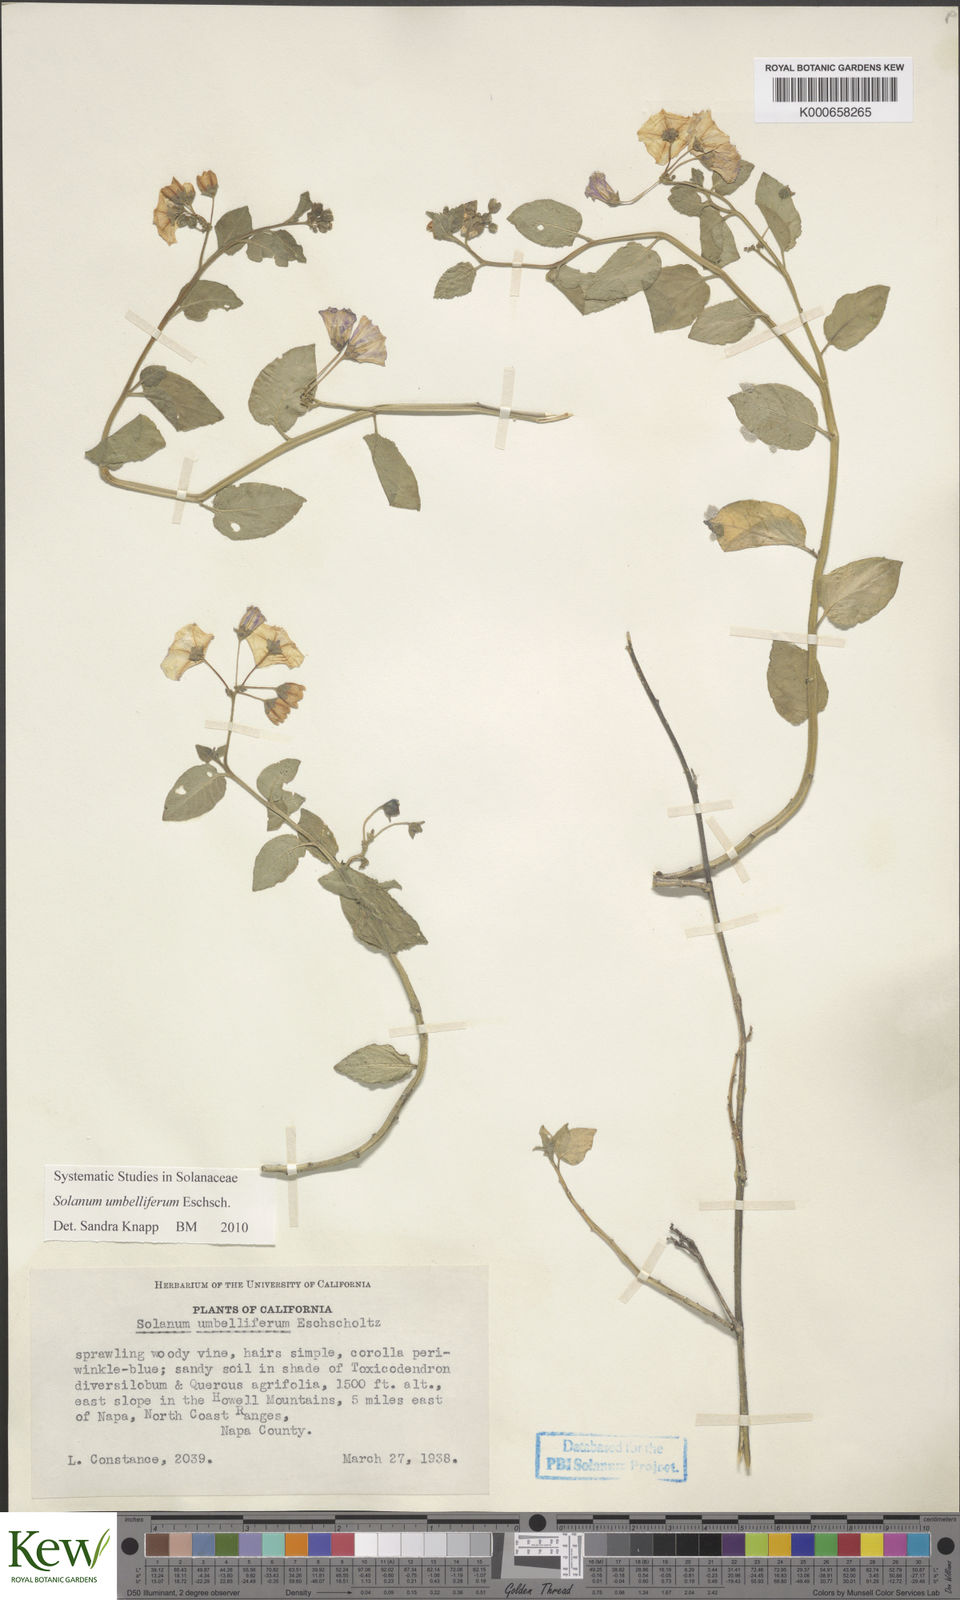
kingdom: Plantae
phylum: Tracheophyta
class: Magnoliopsida
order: Solanales
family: Solanaceae
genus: Solanum
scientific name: Solanum umbelliferum
